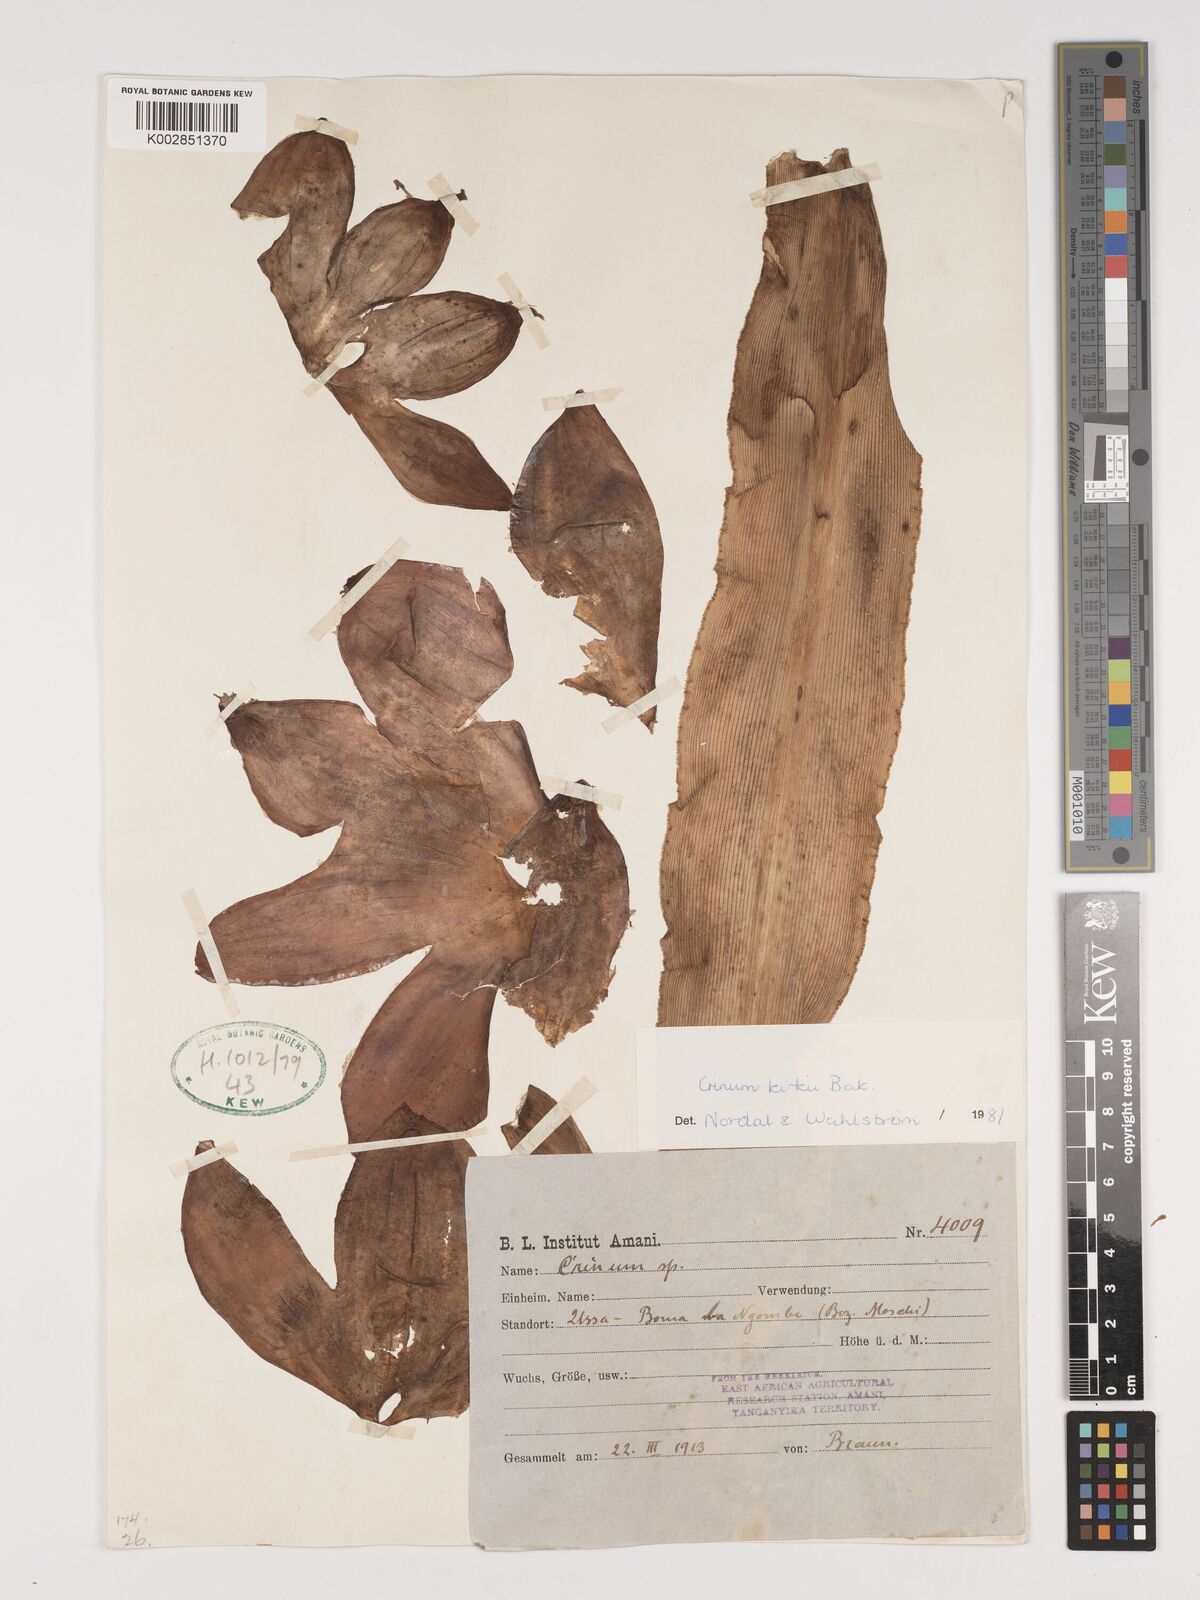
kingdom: Plantae
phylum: Tracheophyta
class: Liliopsida
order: Asparagales
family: Amaryllidaceae
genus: Crinum
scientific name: Crinum kirkii
